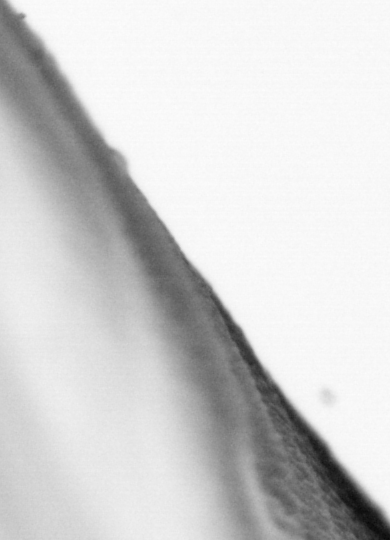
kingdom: Animalia
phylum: Chordata
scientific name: Chordata
